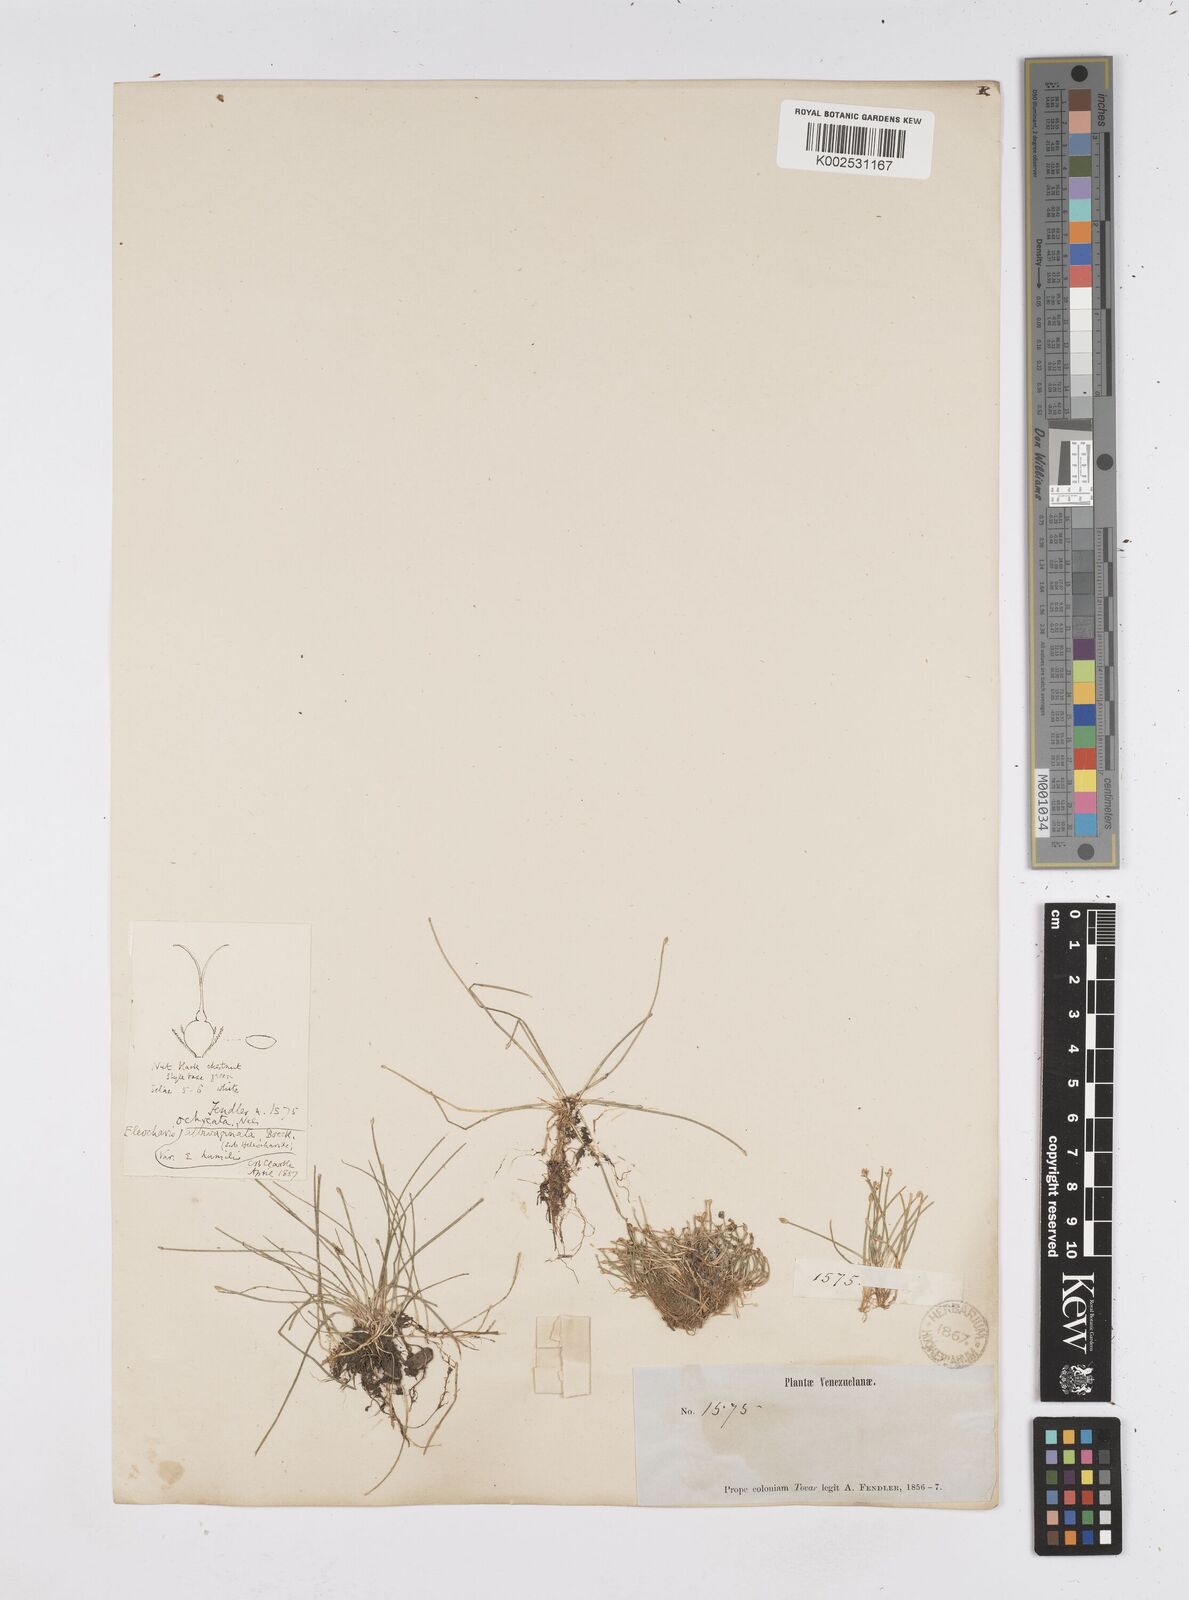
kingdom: Plantae
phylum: Tracheophyta
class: Liliopsida
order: Poales
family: Cyperaceae
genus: Eleocharis
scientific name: Eleocharis flavescens
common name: Yellow spikerush
